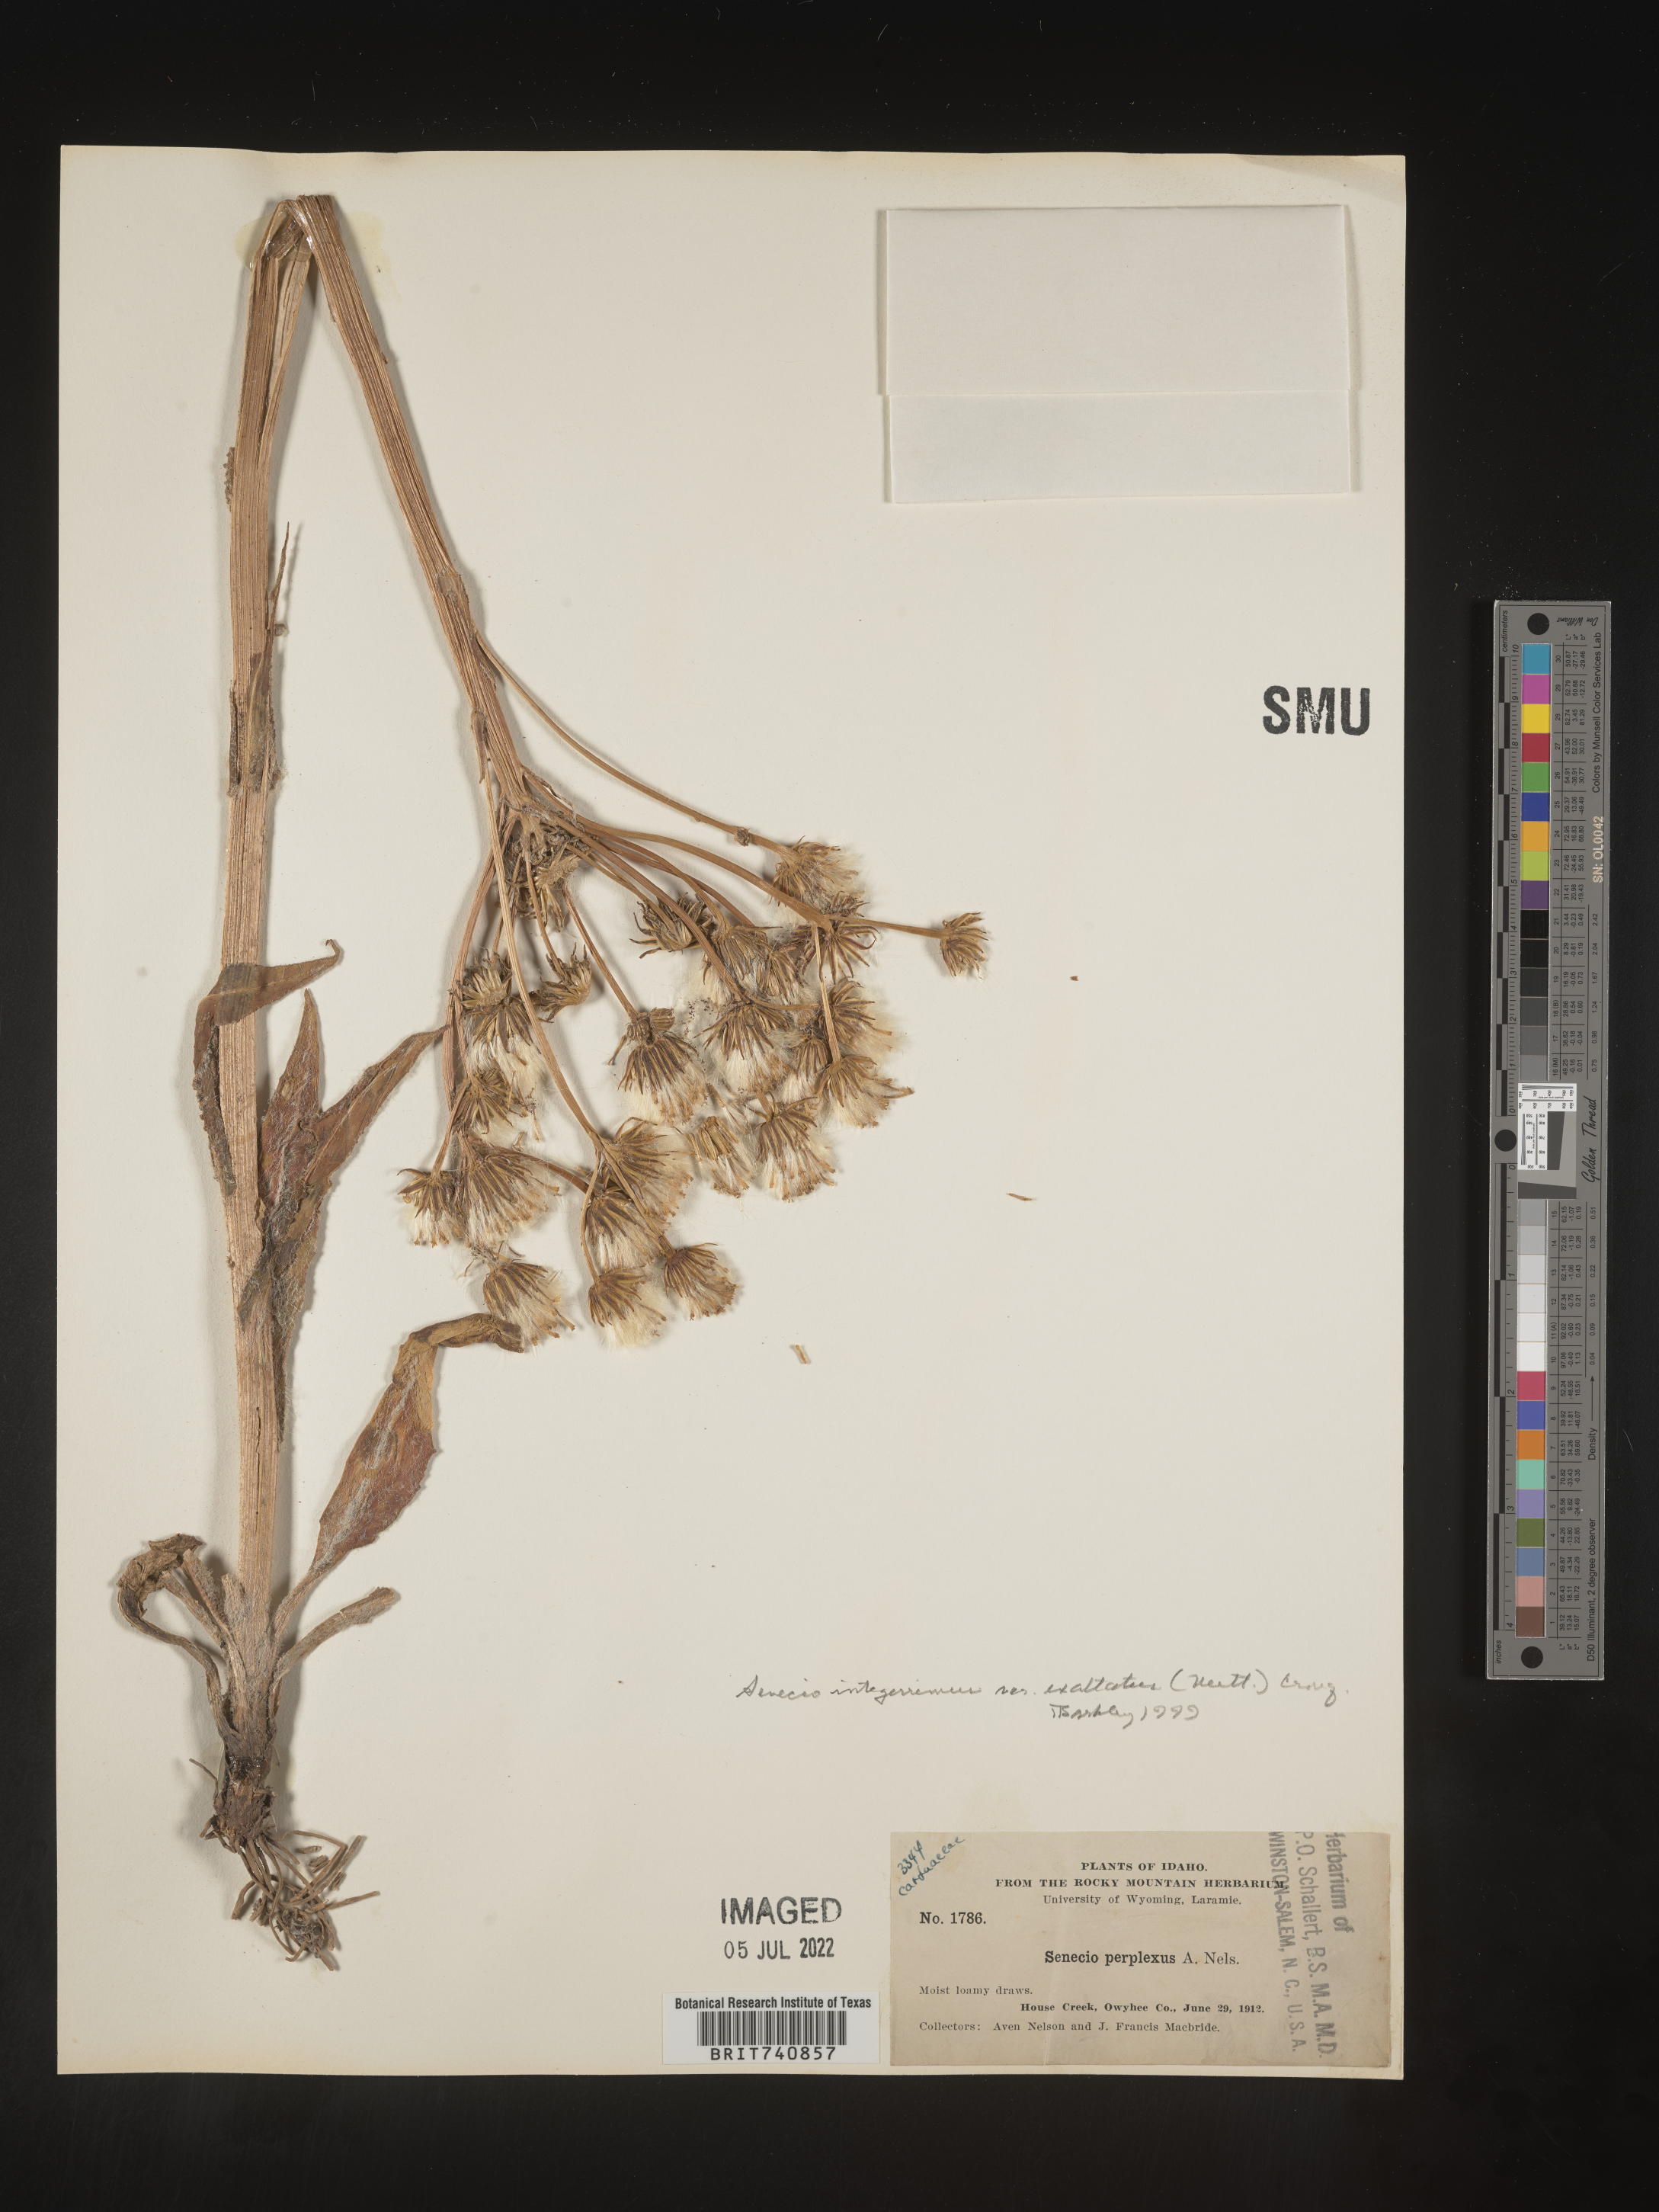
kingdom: Plantae
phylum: Tracheophyta
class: Magnoliopsida
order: Asterales
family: Asteraceae
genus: Senecio
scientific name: Senecio integerrimus
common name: Gaugeplant
